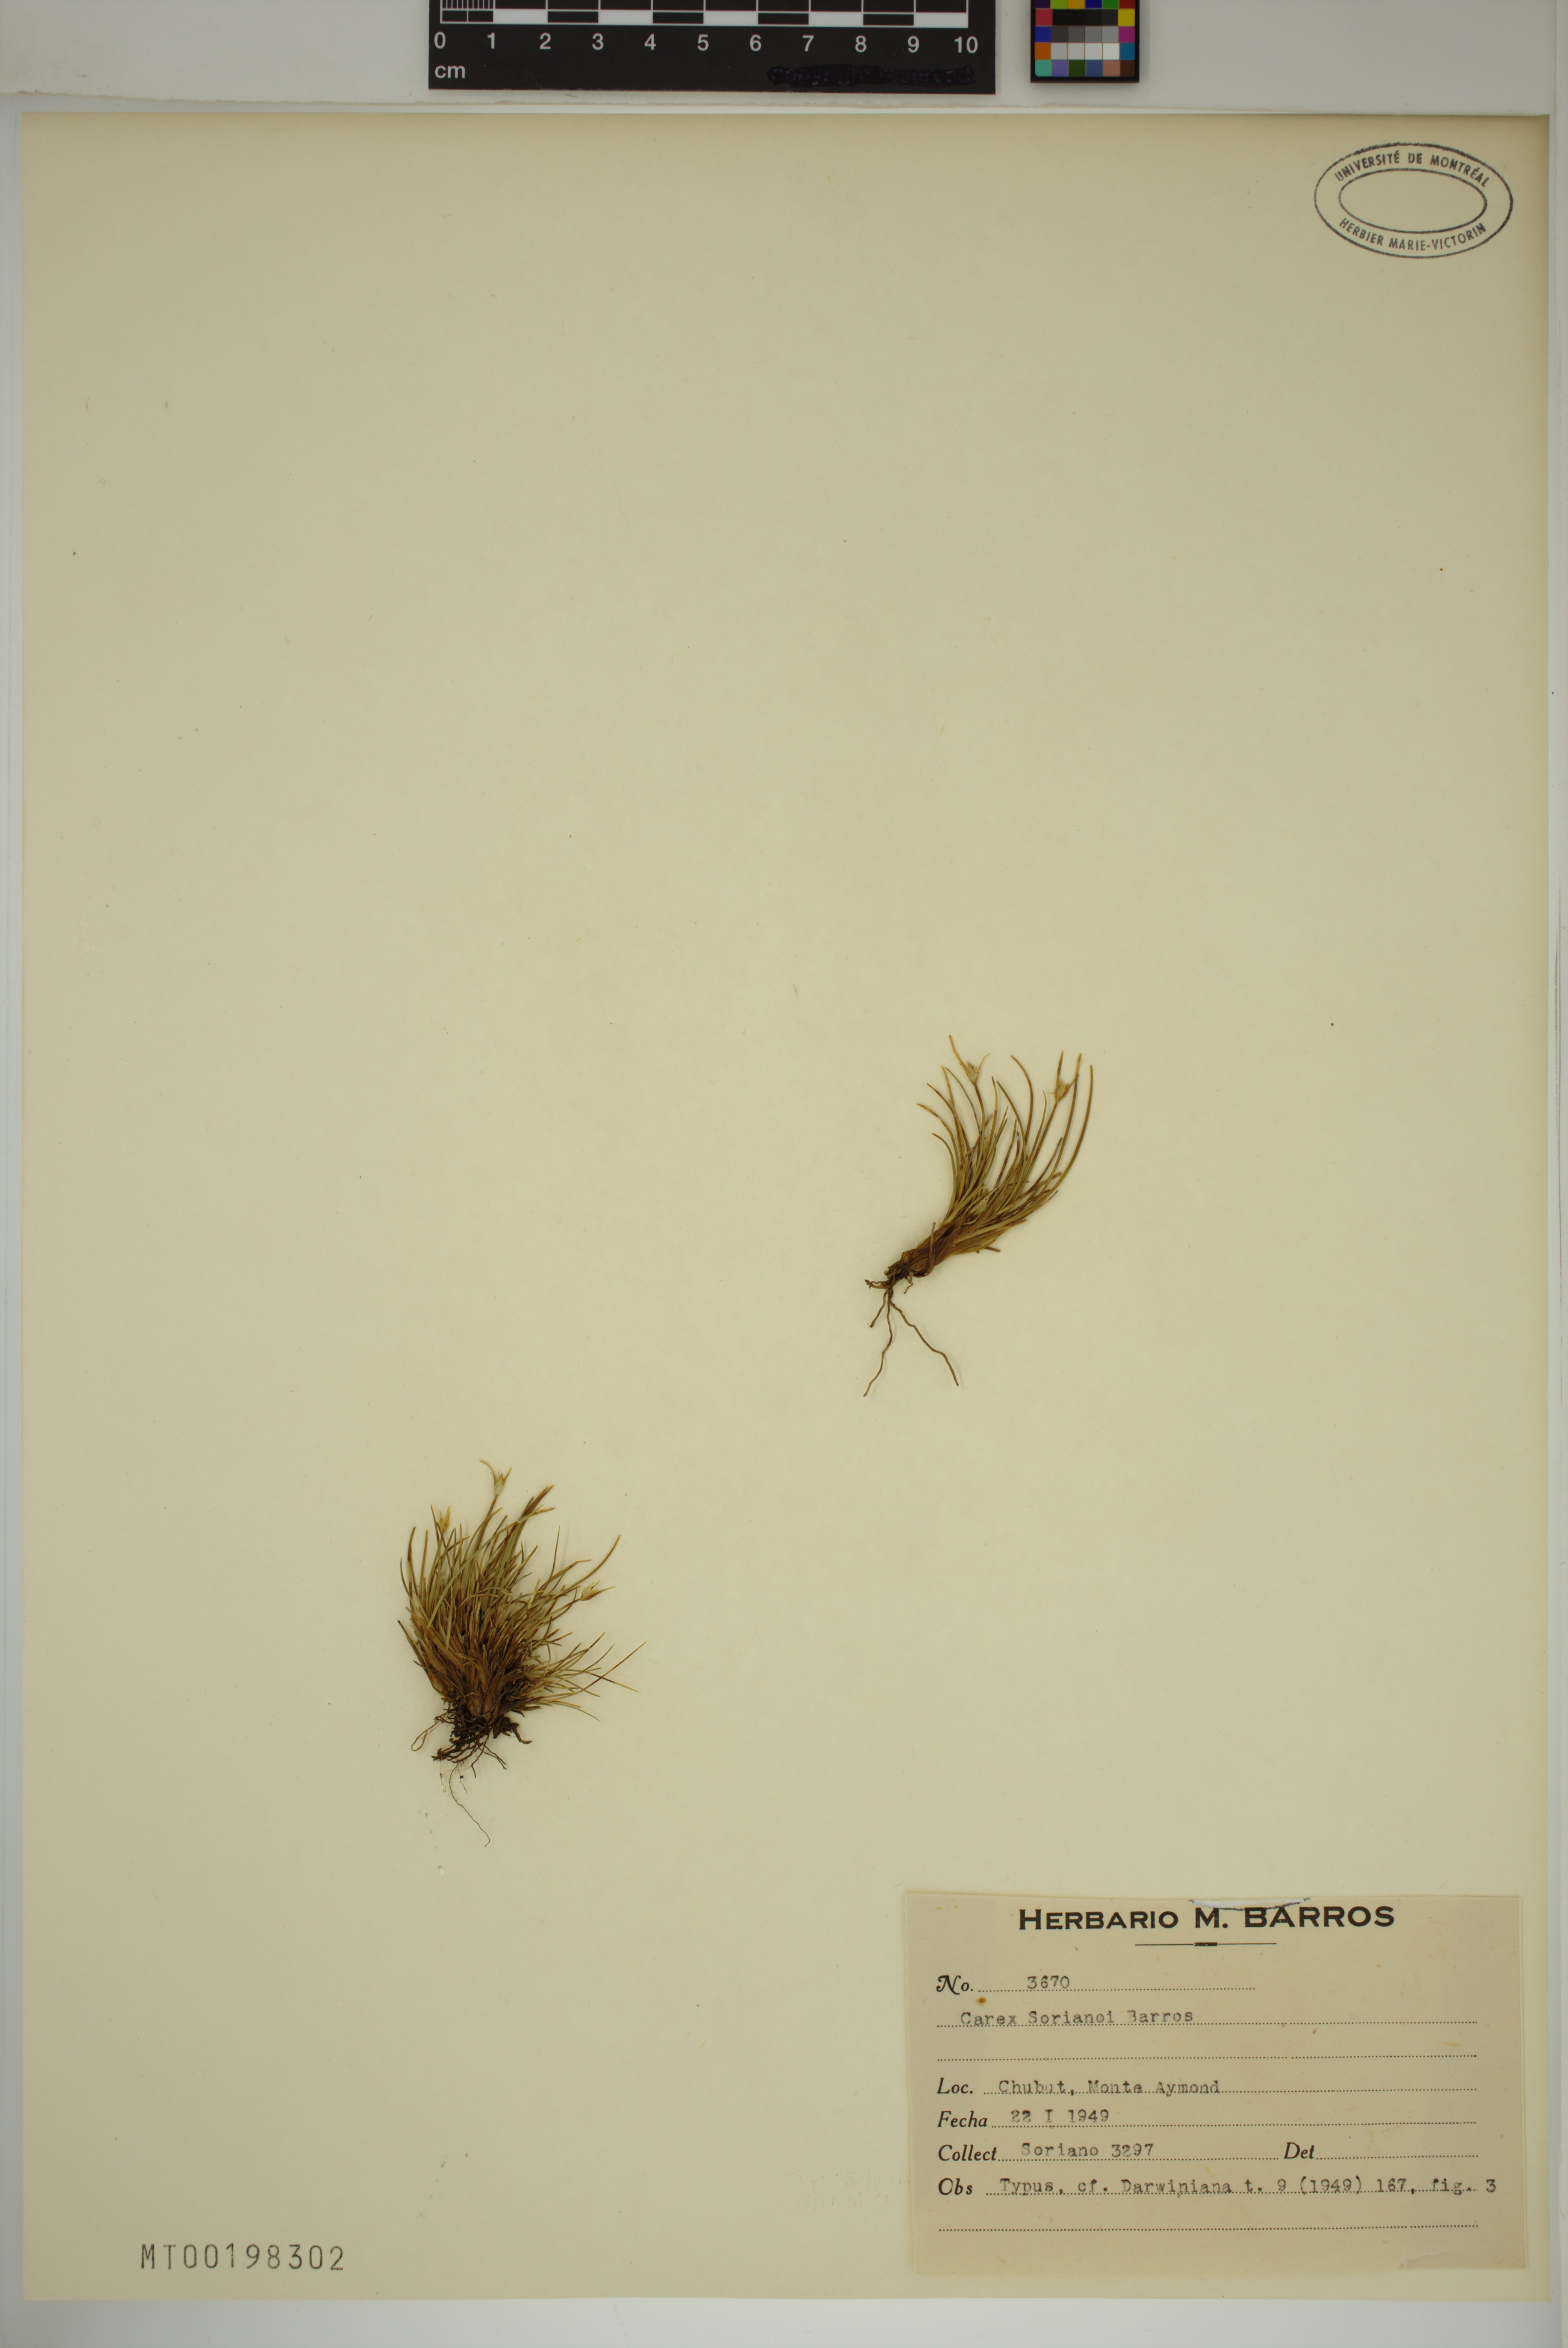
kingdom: Plantae
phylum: Tracheophyta
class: Liliopsida
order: Poales
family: Cyperaceae
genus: Carex
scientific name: Carex sorianoi
